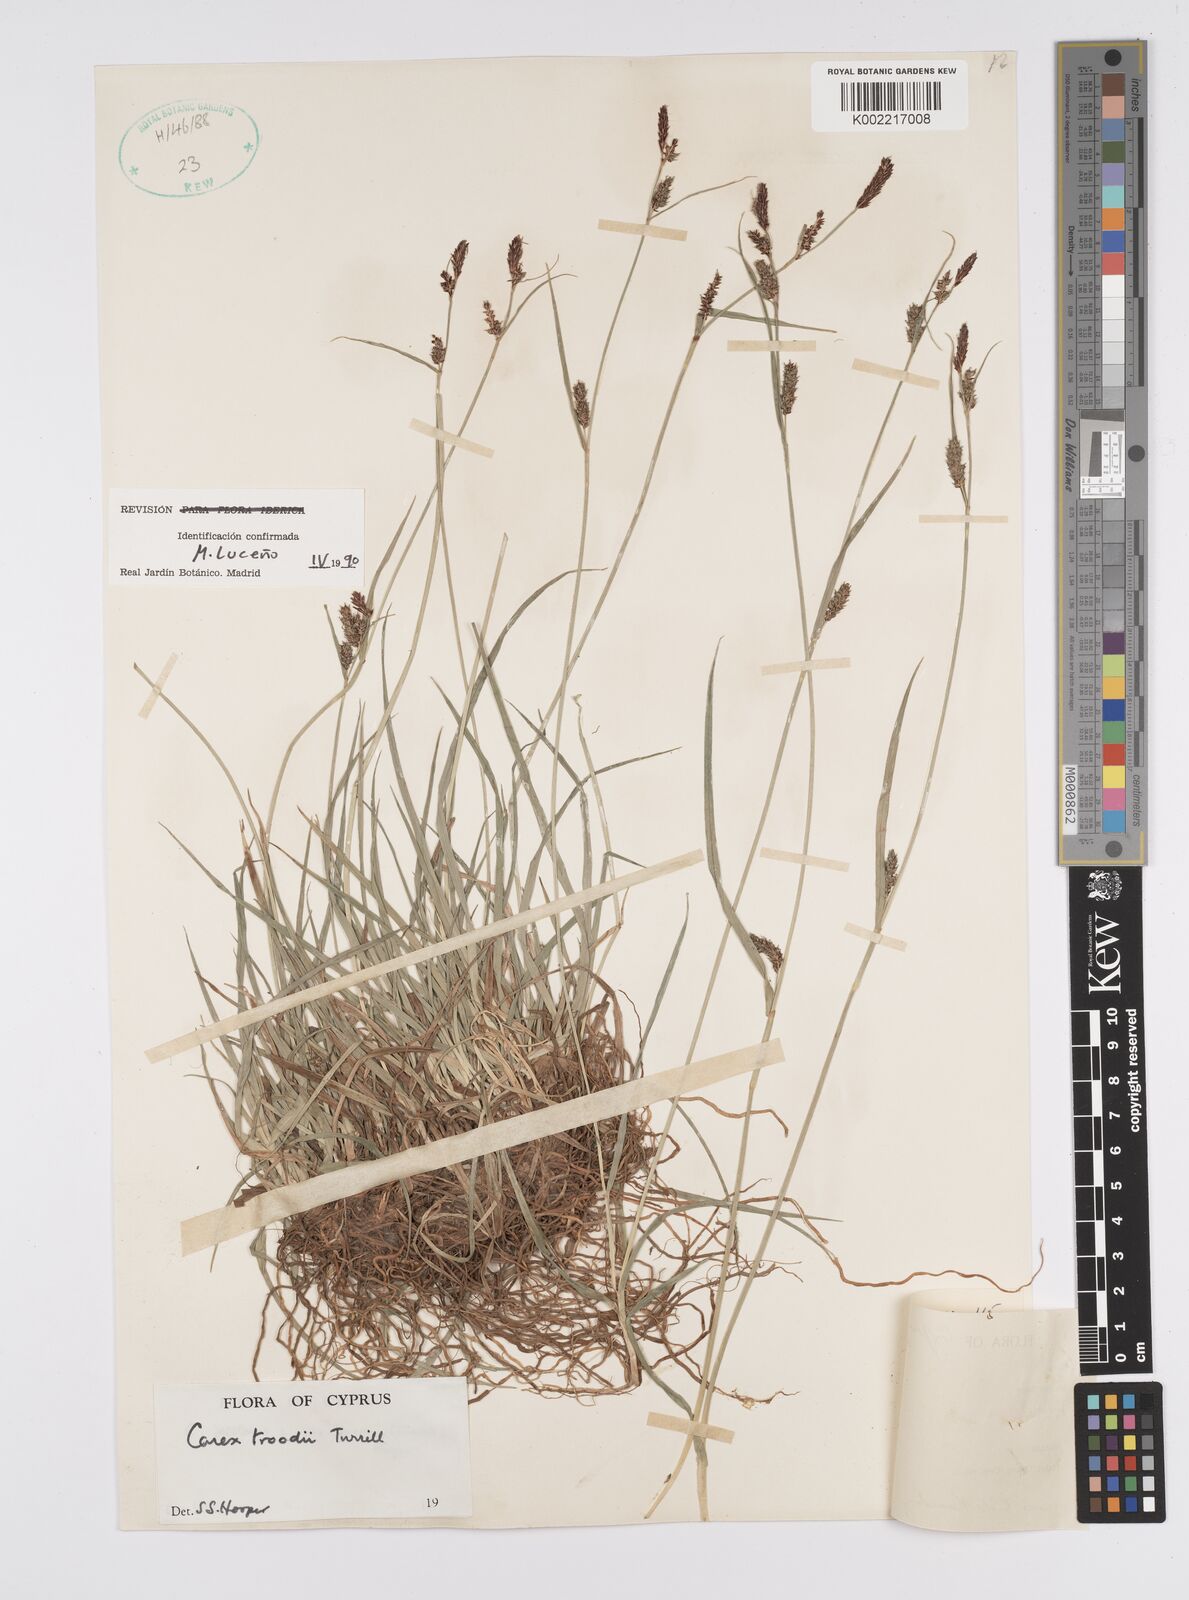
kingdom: Plantae
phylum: Tracheophyta
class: Liliopsida
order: Poales
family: Cyperaceae
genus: Carex
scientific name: Carex troodi
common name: Troodos mount sedge
